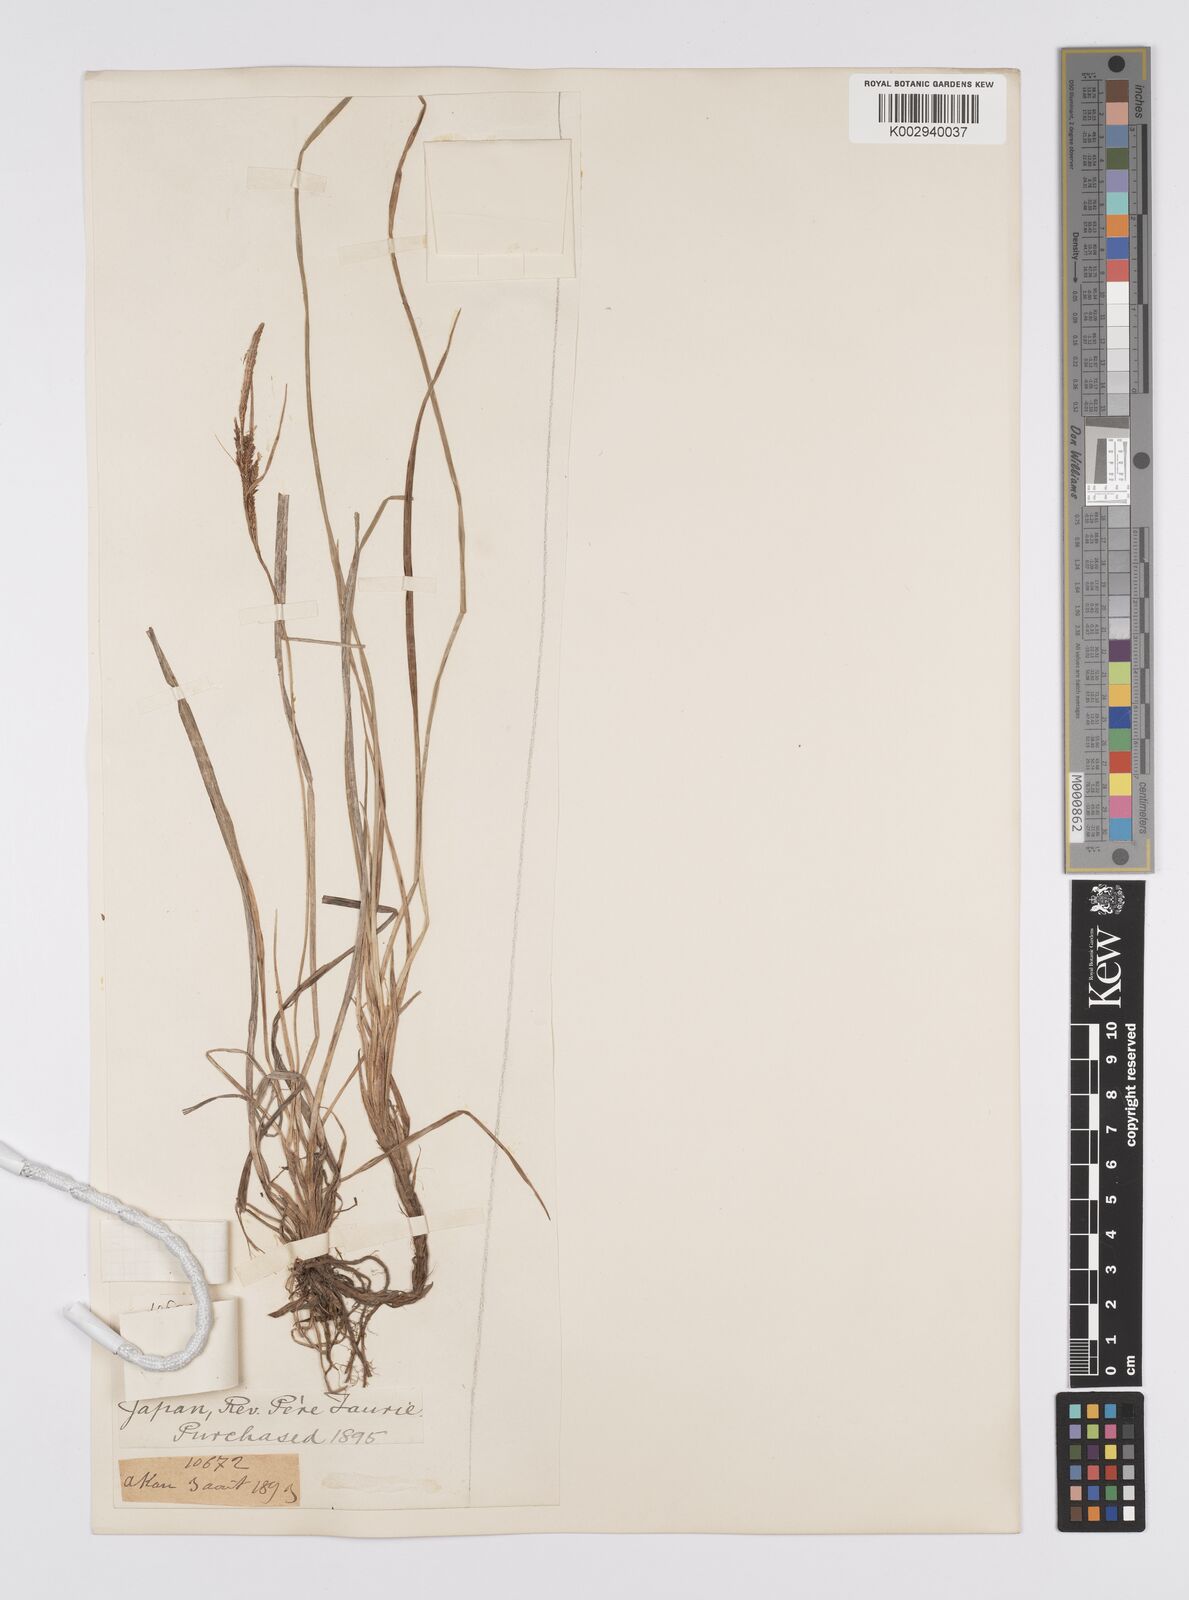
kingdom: Plantae
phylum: Tracheophyta
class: Liliopsida
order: Poales
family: Cyperaceae
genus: Carex
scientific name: Carex thunbergii
